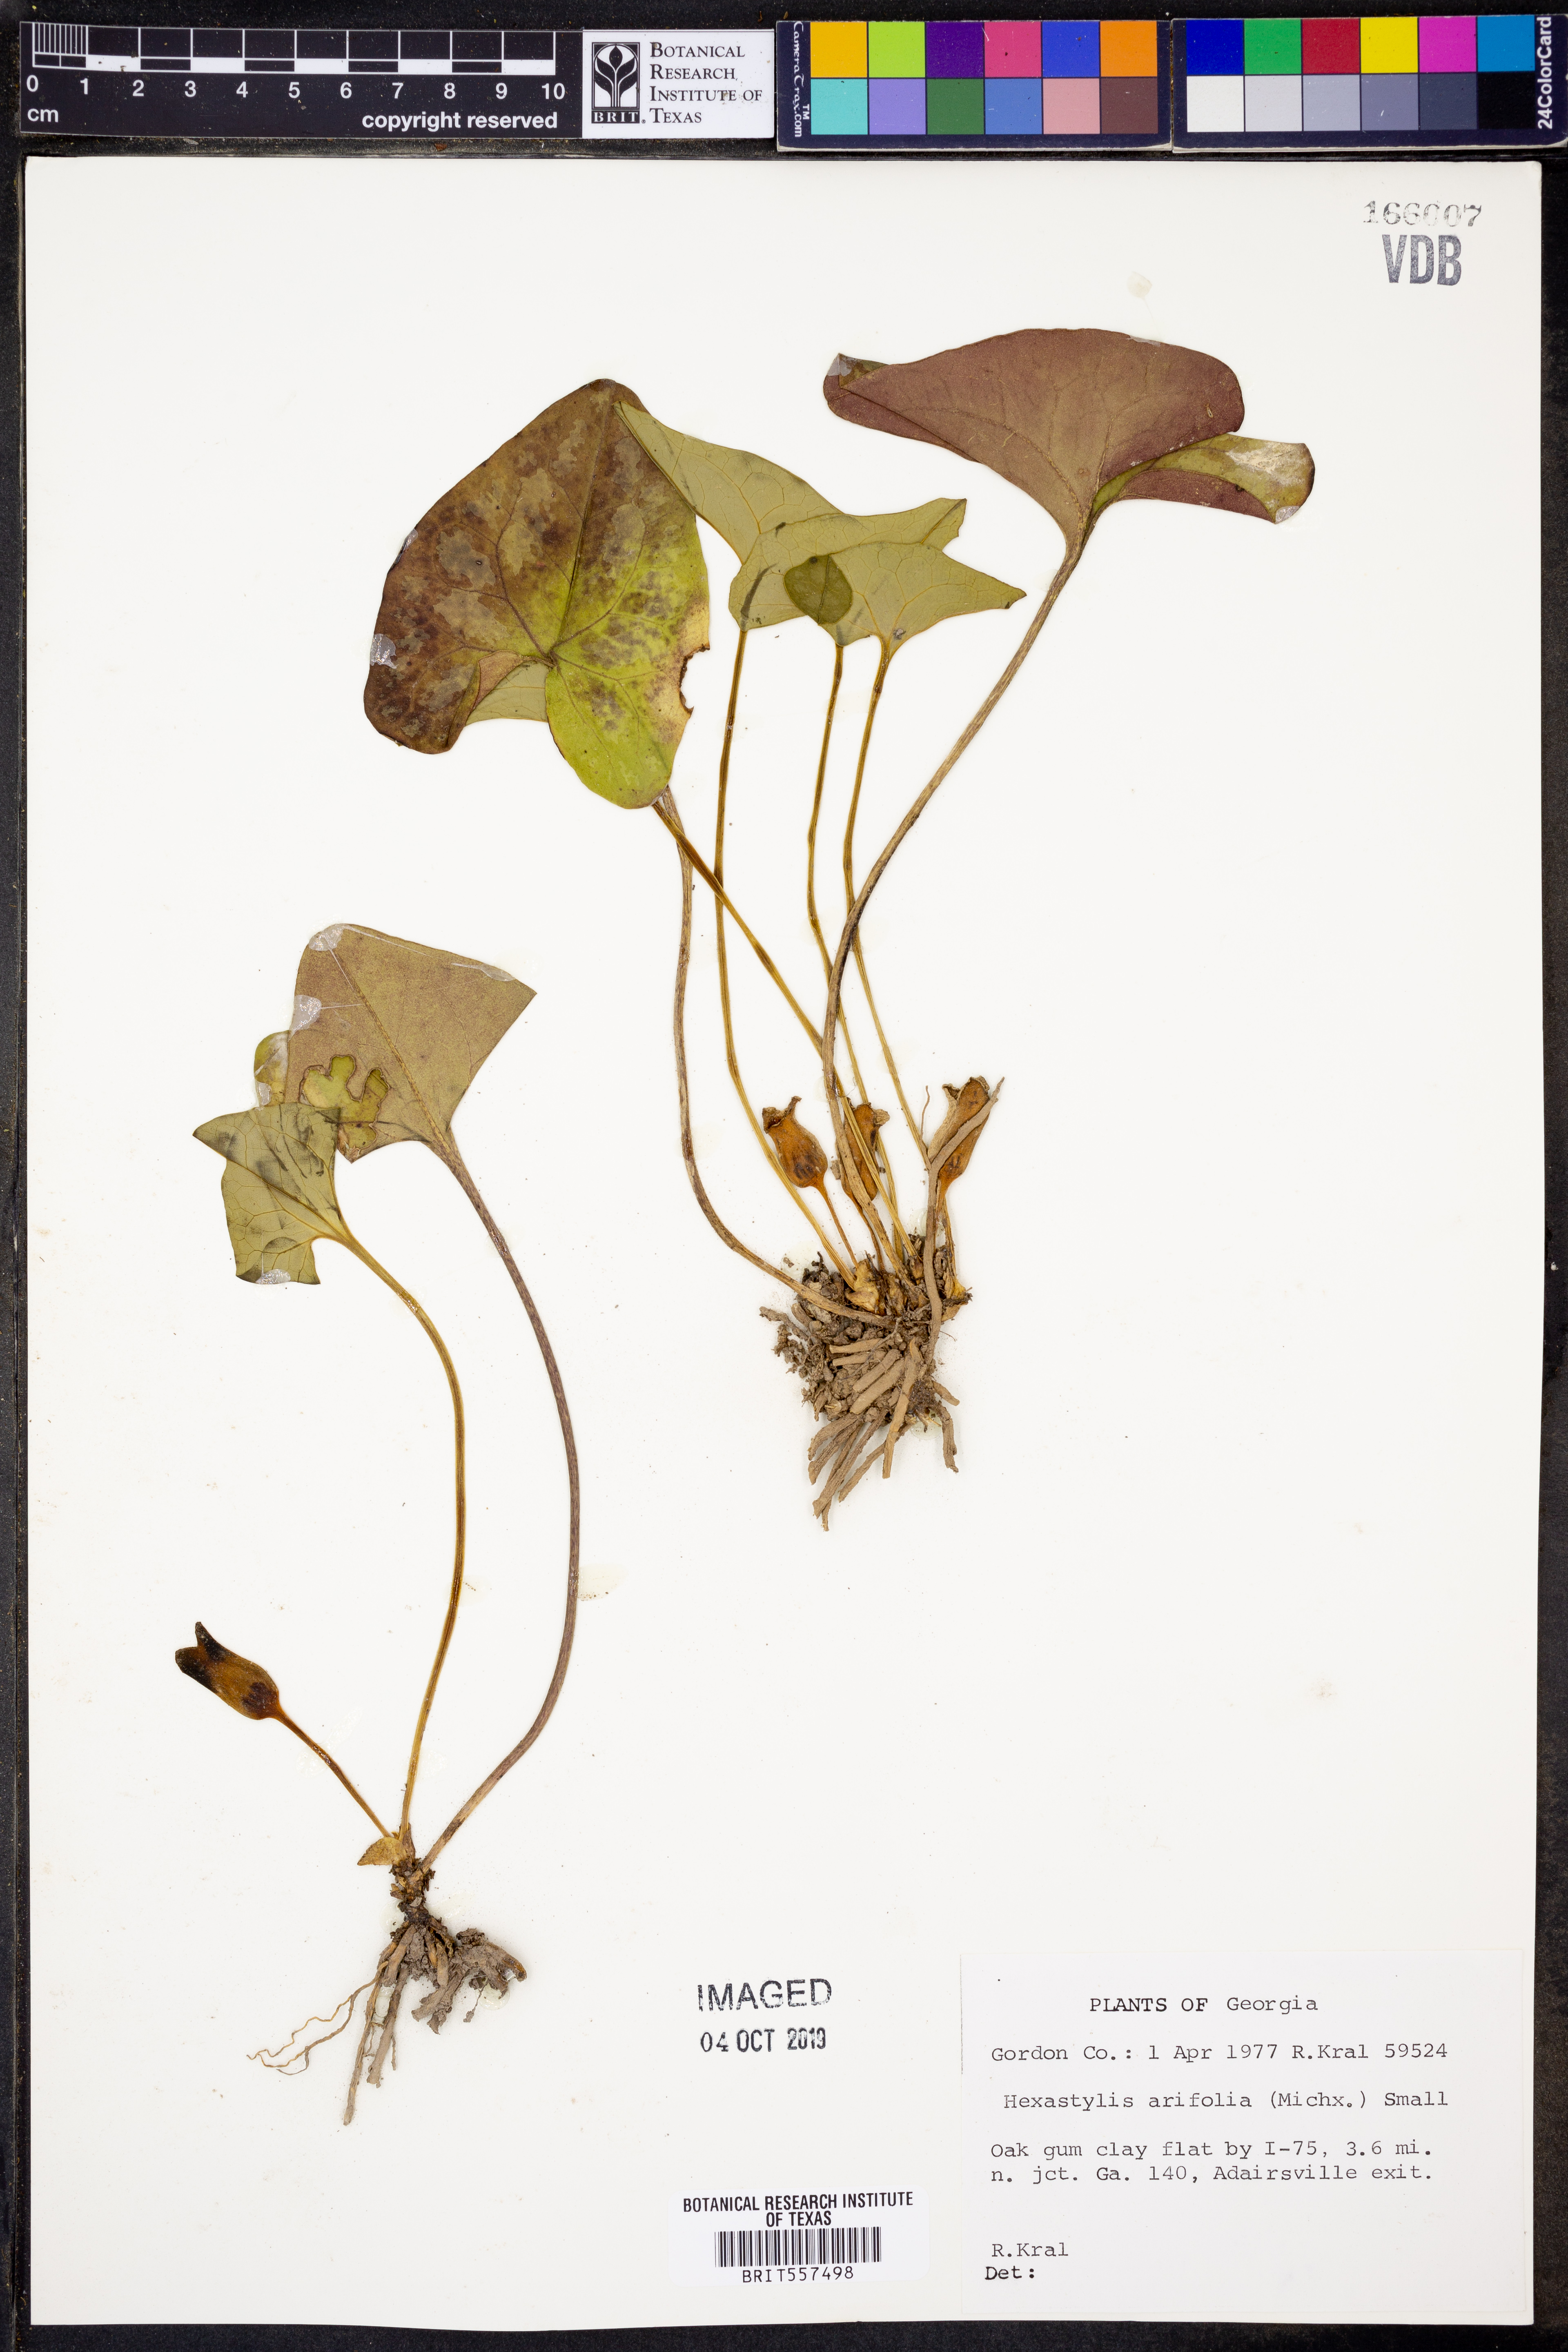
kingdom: Plantae
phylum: Tracheophyta
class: Magnoliopsida
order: Piperales
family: Aristolochiaceae
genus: Hexastylis
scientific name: Hexastylis arifolia
